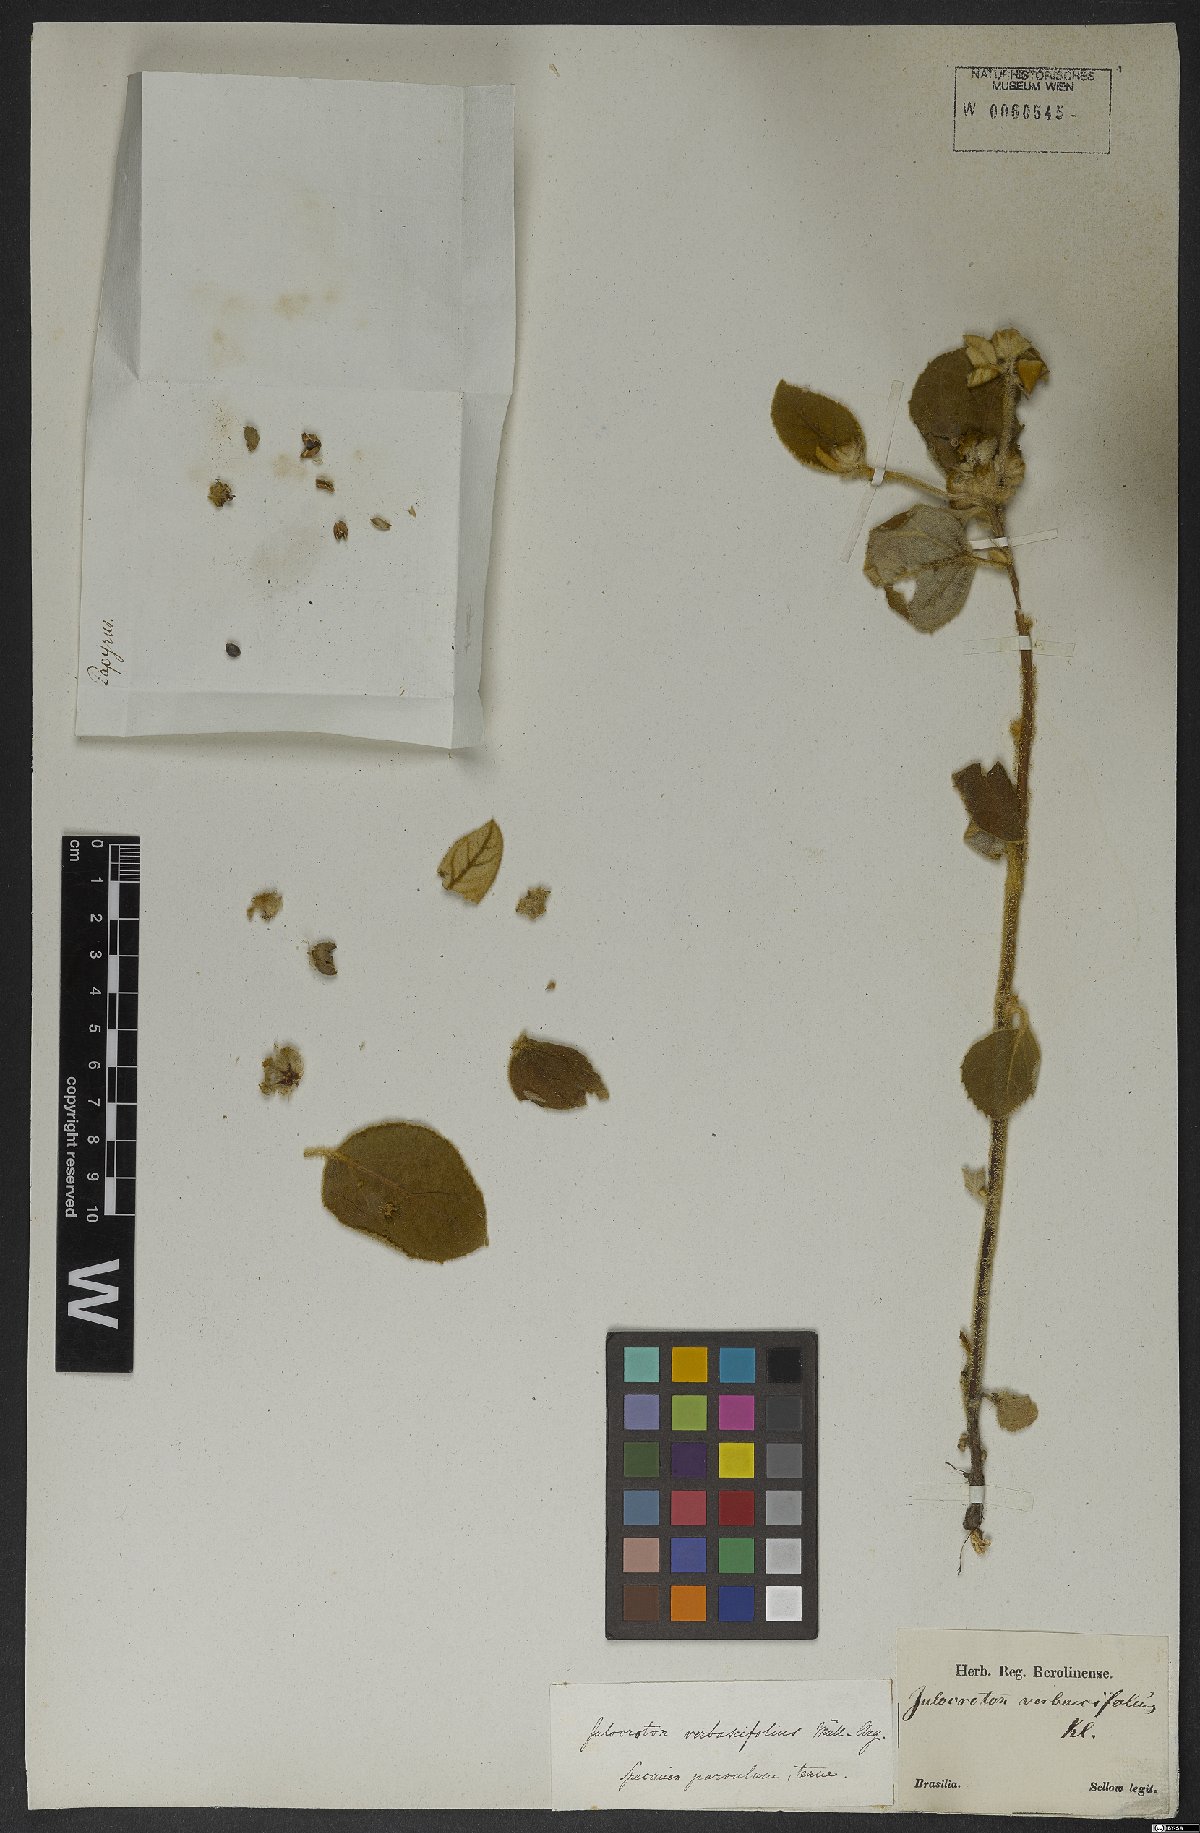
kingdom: Plantae
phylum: Tracheophyta
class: Magnoliopsida
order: Malpighiales
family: Euphorbiaceae
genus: Croton
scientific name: Croton verbascoides
